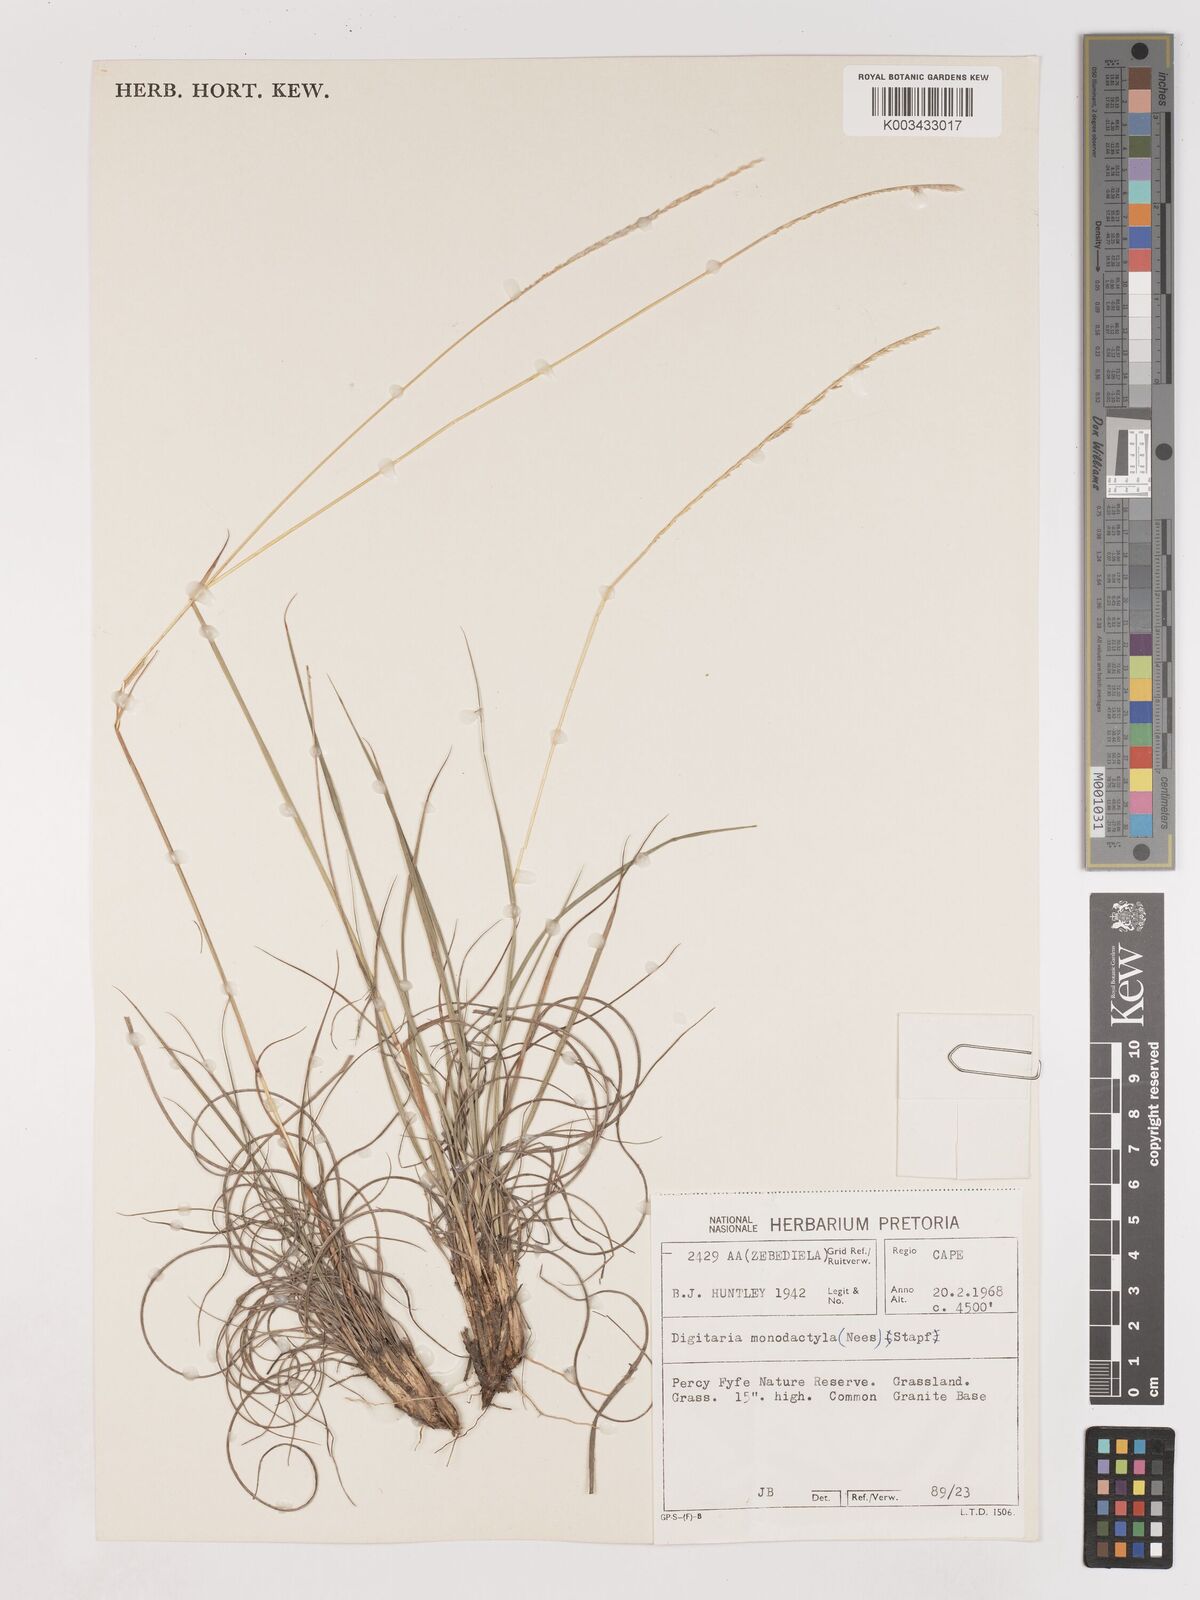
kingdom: Plantae
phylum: Tracheophyta
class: Liliopsida
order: Poales
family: Poaceae
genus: Digitaria
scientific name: Digitaria monodactyla
